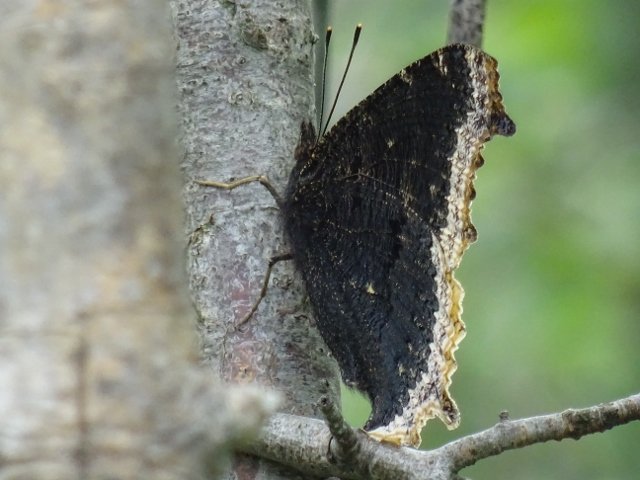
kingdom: Animalia
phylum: Arthropoda
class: Insecta
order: Lepidoptera
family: Nymphalidae
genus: Nymphalis
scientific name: Nymphalis antiopa
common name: Mourning Cloak
